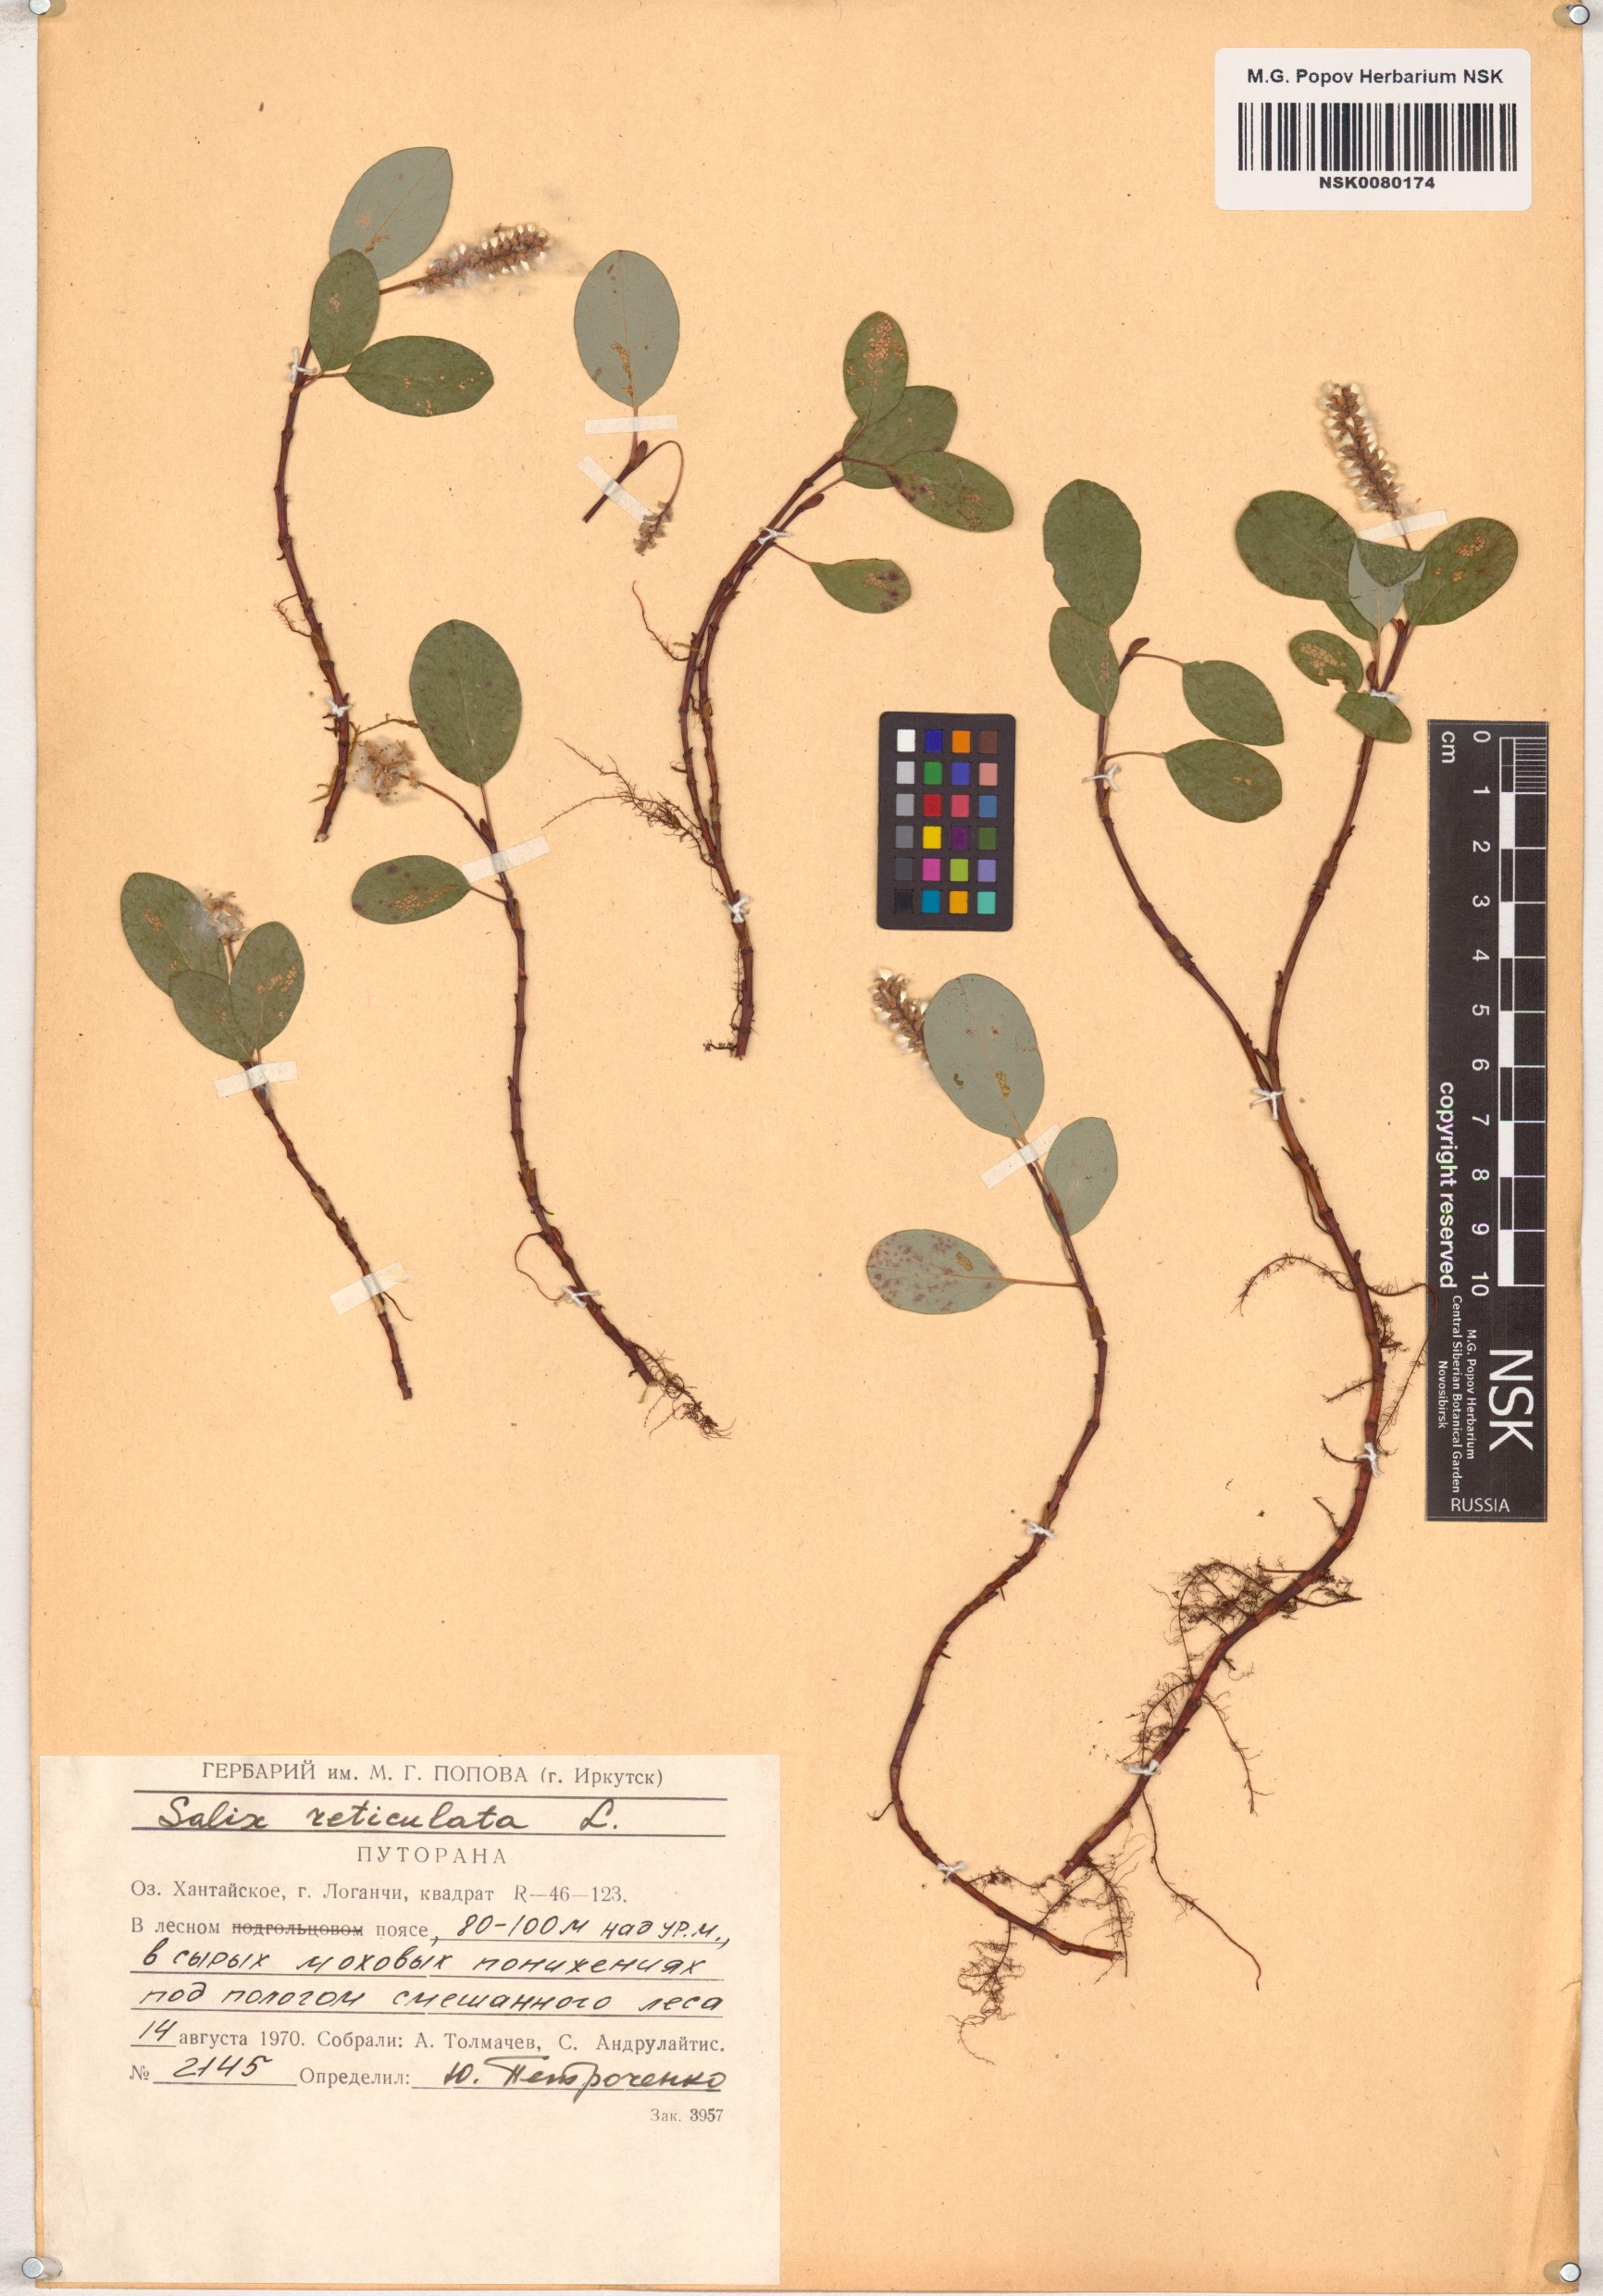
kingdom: Plantae
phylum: Tracheophyta
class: Magnoliopsida
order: Malpighiales
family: Salicaceae
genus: Salix
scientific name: Salix reticulata
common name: Net-leaved willow
